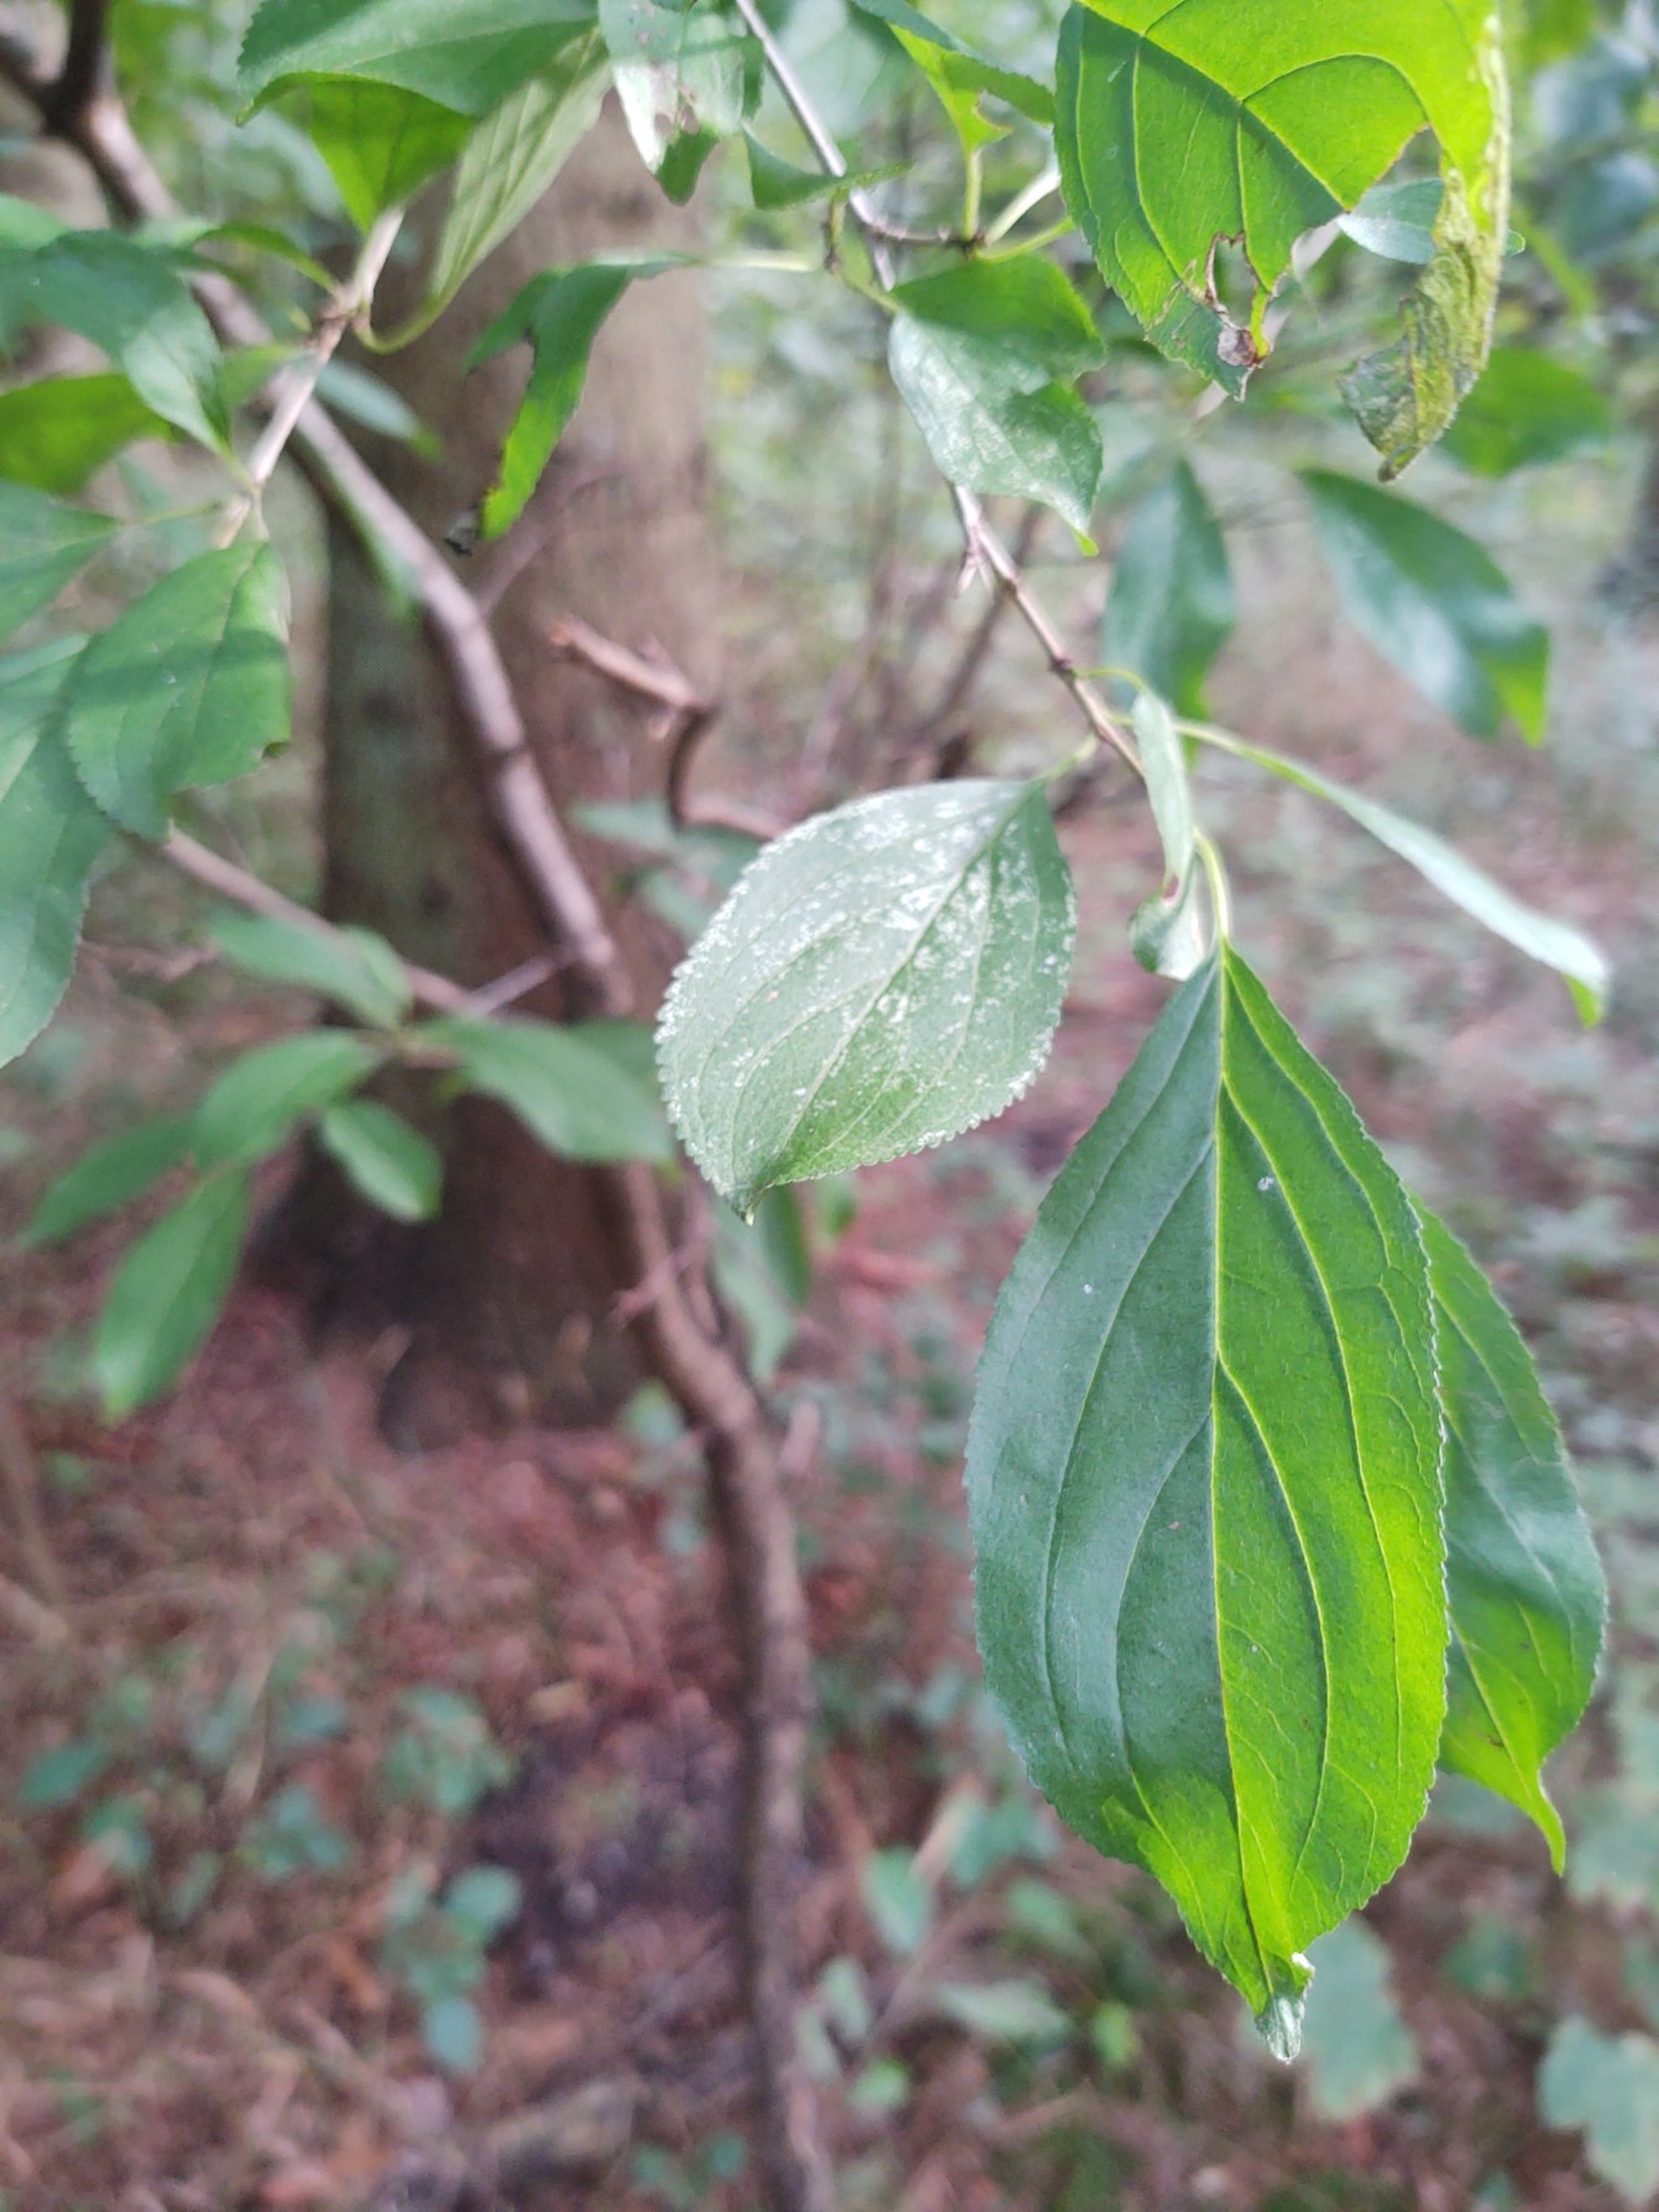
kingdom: Plantae
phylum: Tracheophyta
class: Magnoliopsida
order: Rosales
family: Rhamnaceae
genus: Rhamnus
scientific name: Rhamnus cathartica
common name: Vrietorn
